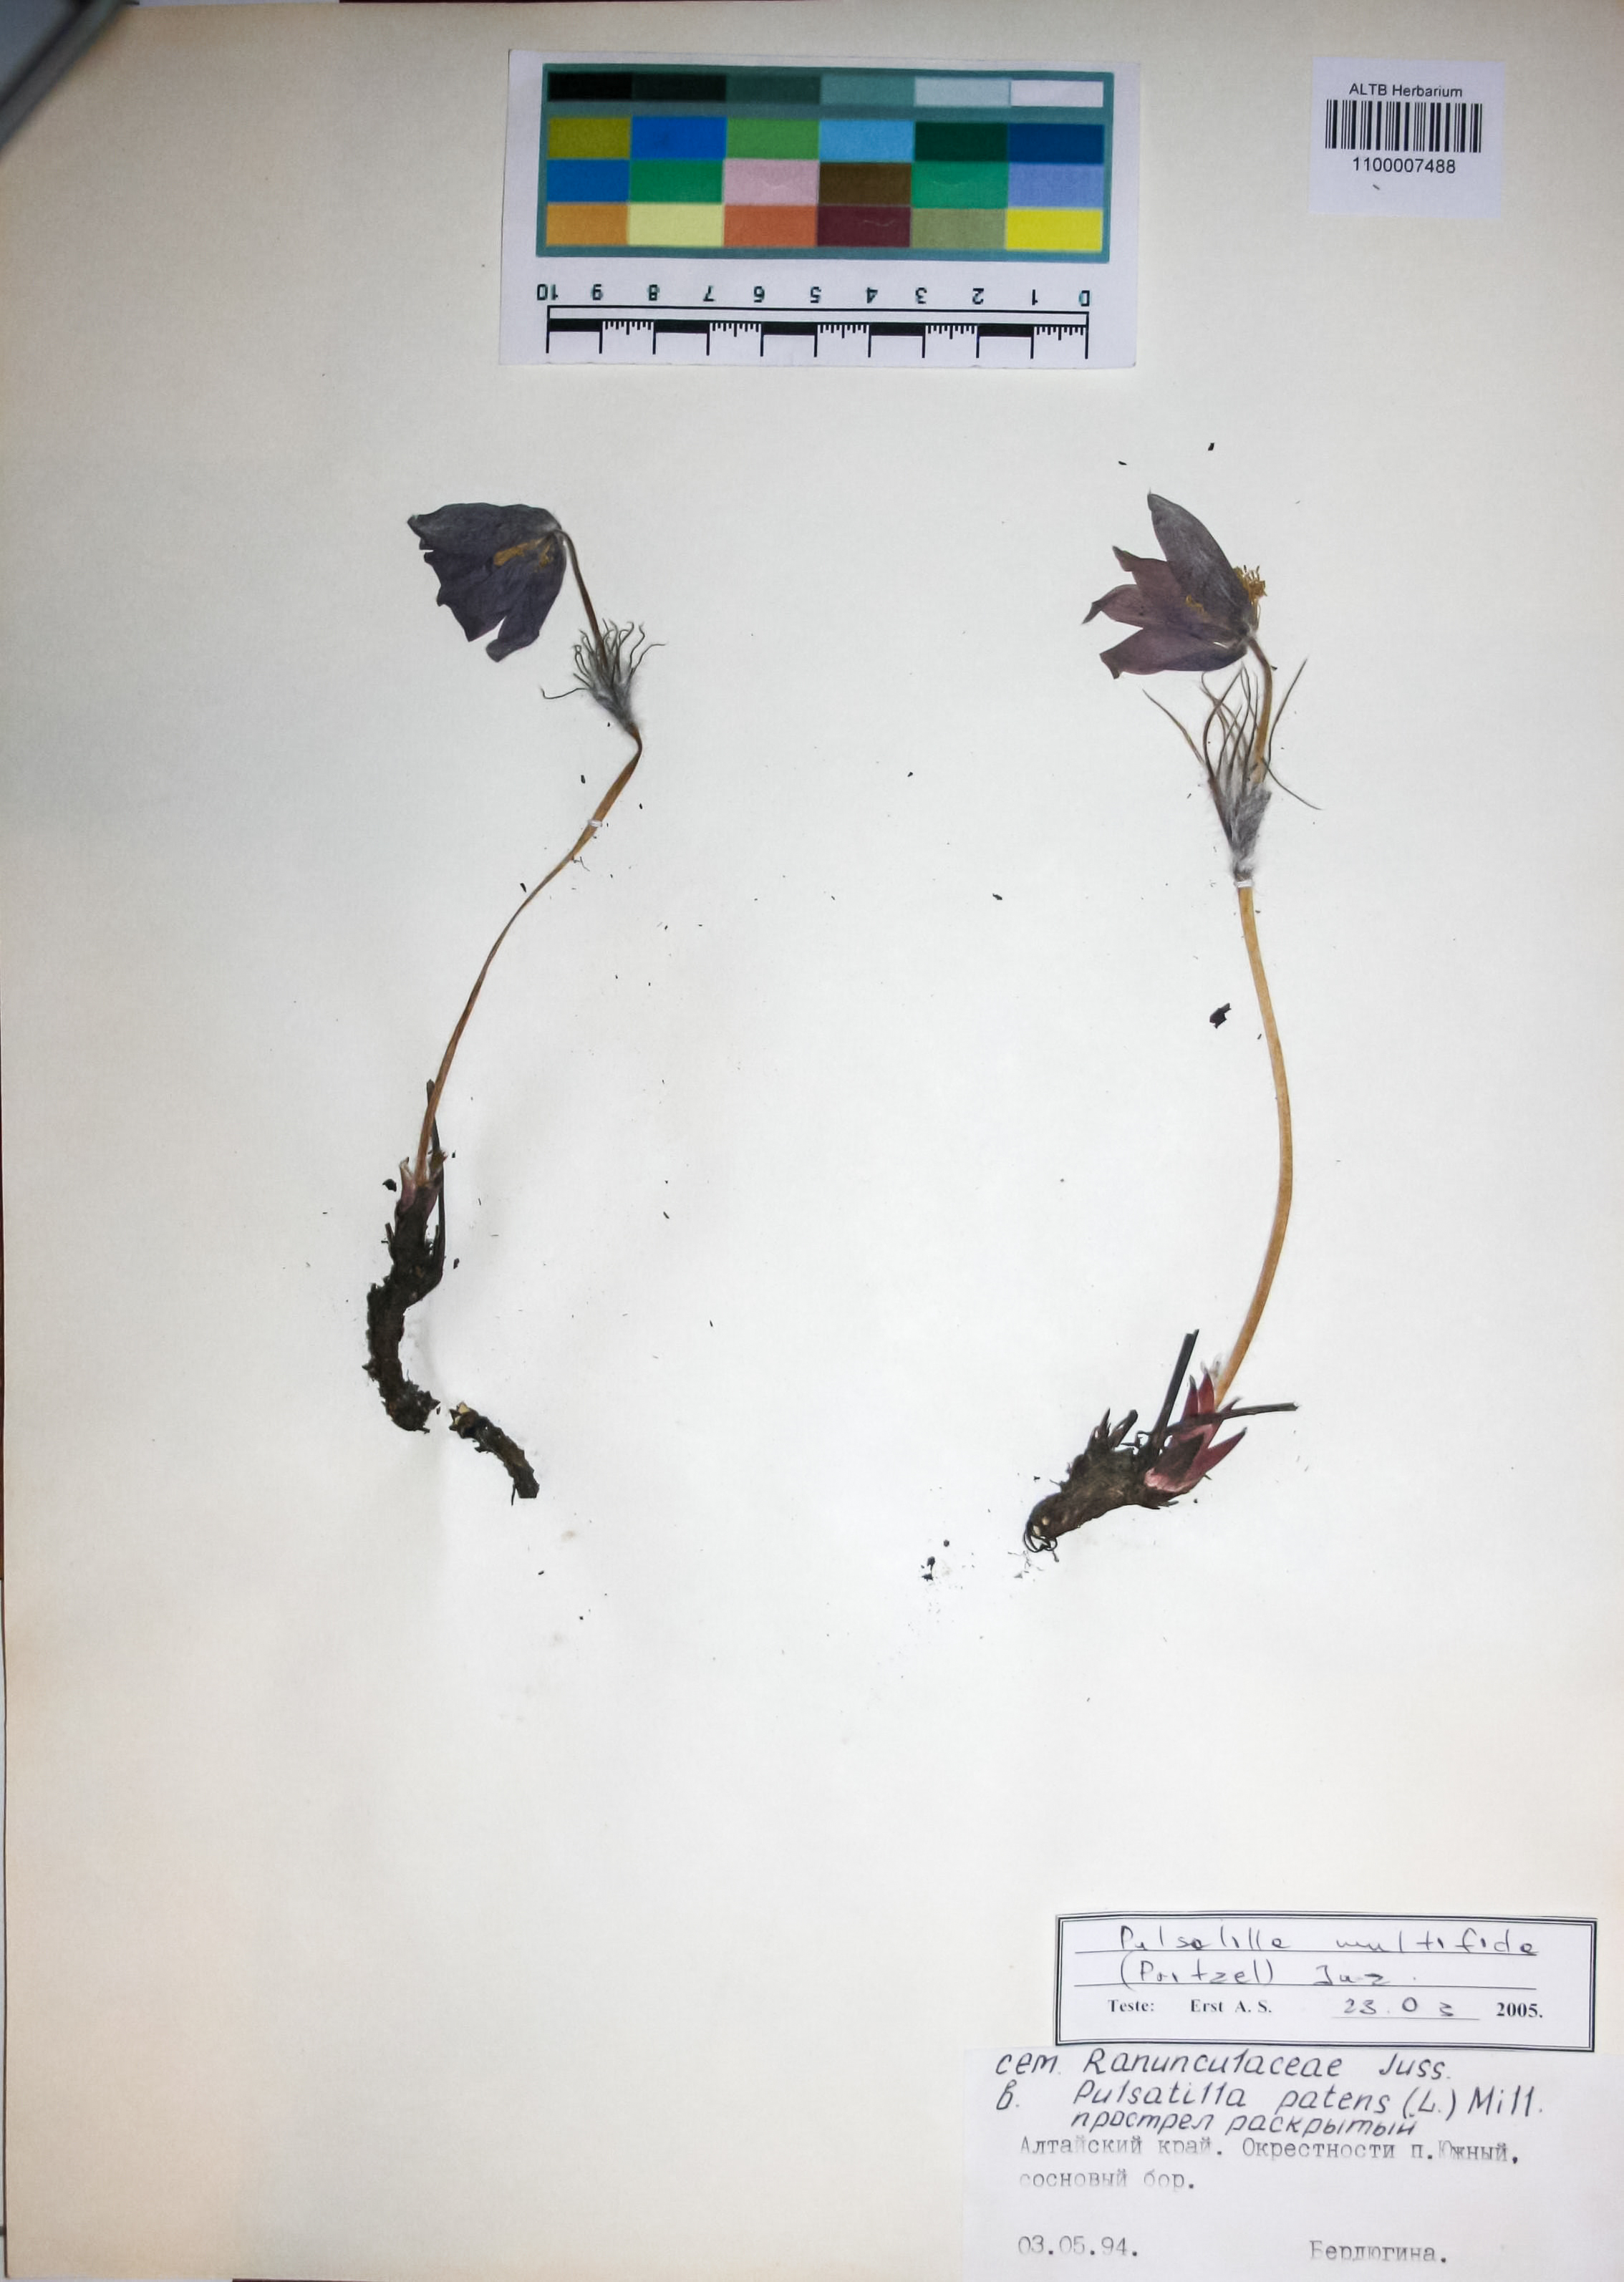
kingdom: Plantae
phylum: Tracheophyta
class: Magnoliopsida
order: Ranunculales
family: Ranunculaceae
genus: Pulsatilla
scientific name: Pulsatilla patens
